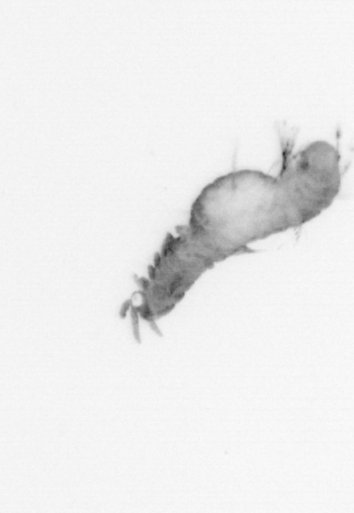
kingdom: Animalia
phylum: Annelida
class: Polychaeta
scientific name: Polychaeta
